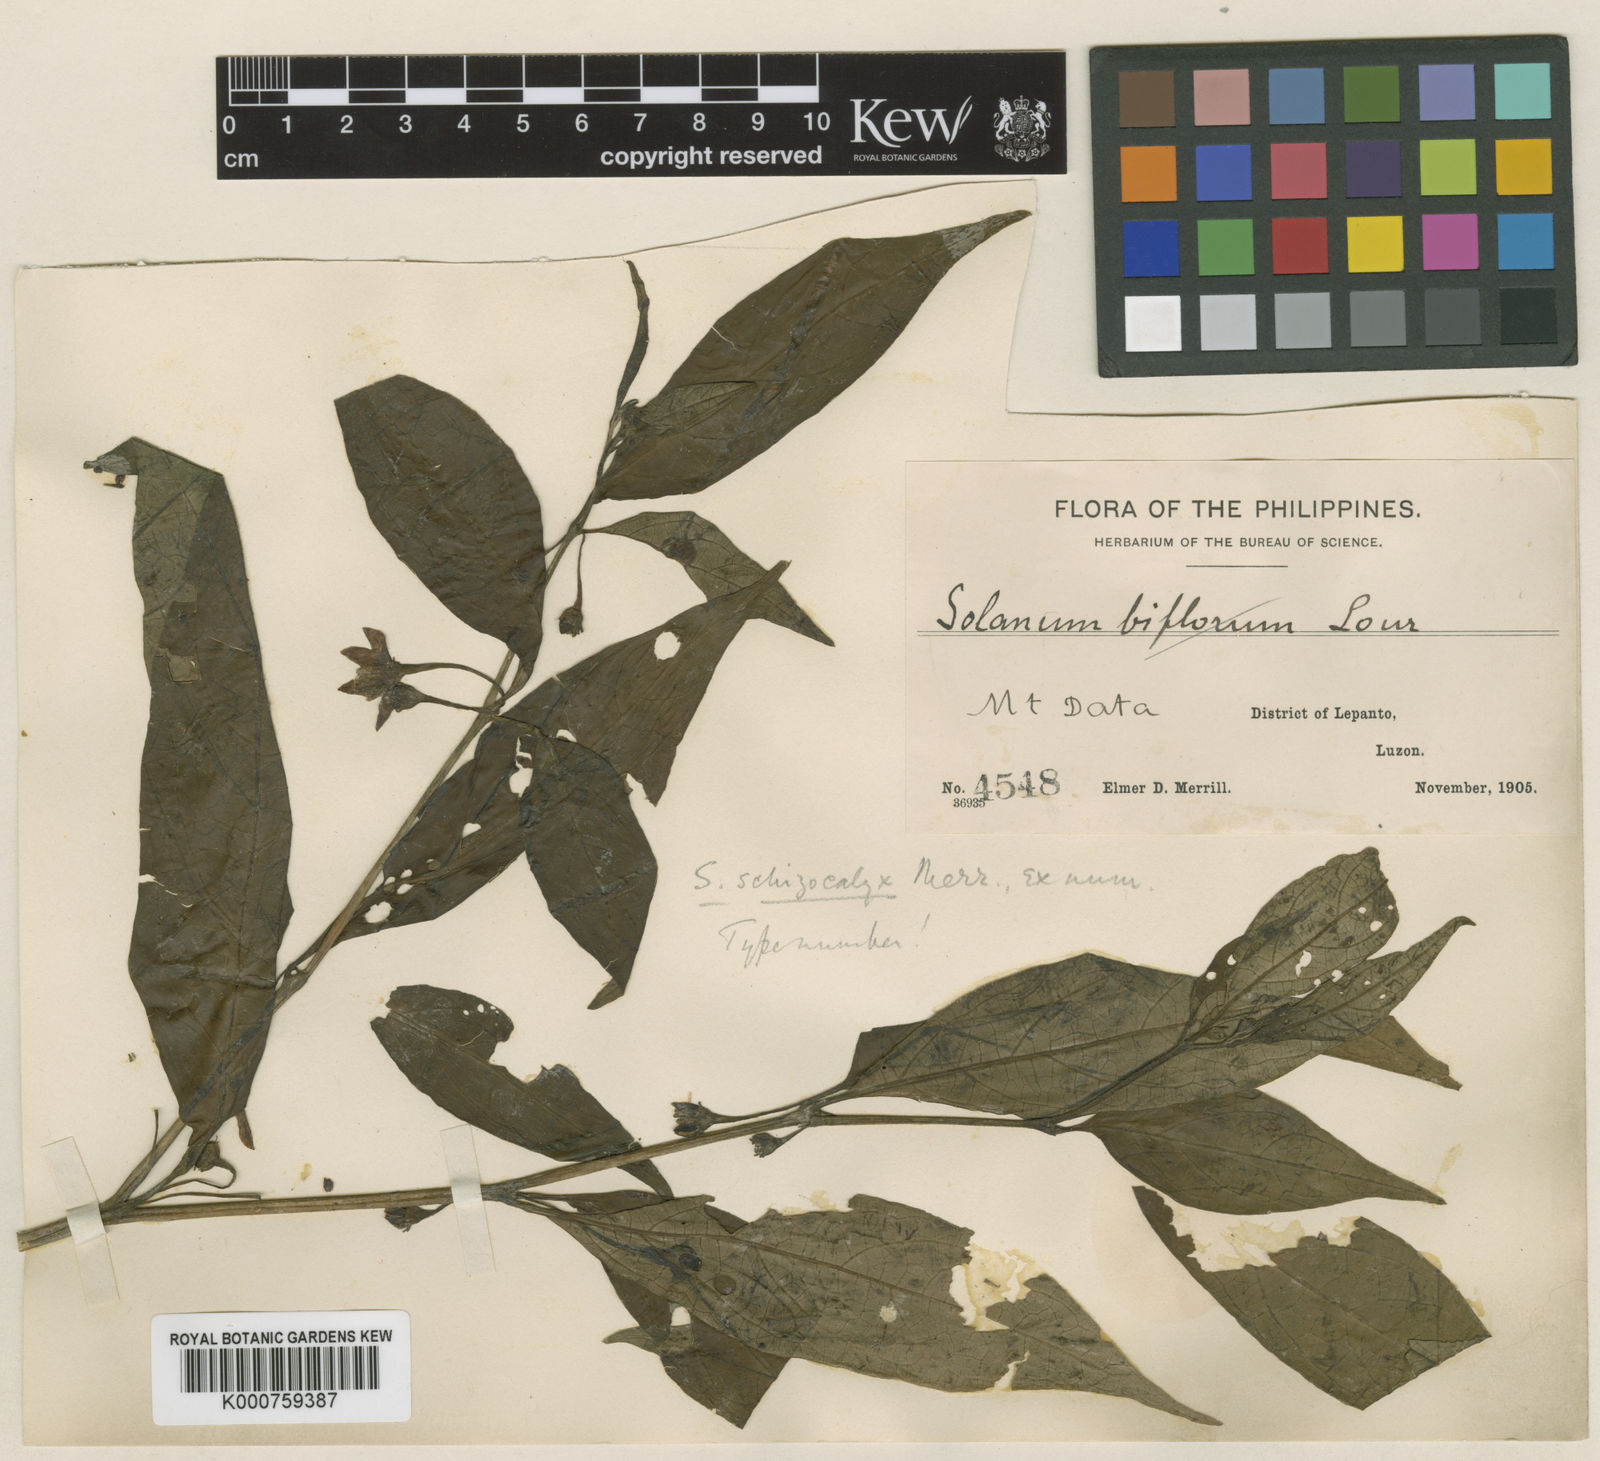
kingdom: Plantae
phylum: Tracheophyta
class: Magnoliopsida
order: Solanales
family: Solanaceae
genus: Lycianthes
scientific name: Lycianthes laevis
